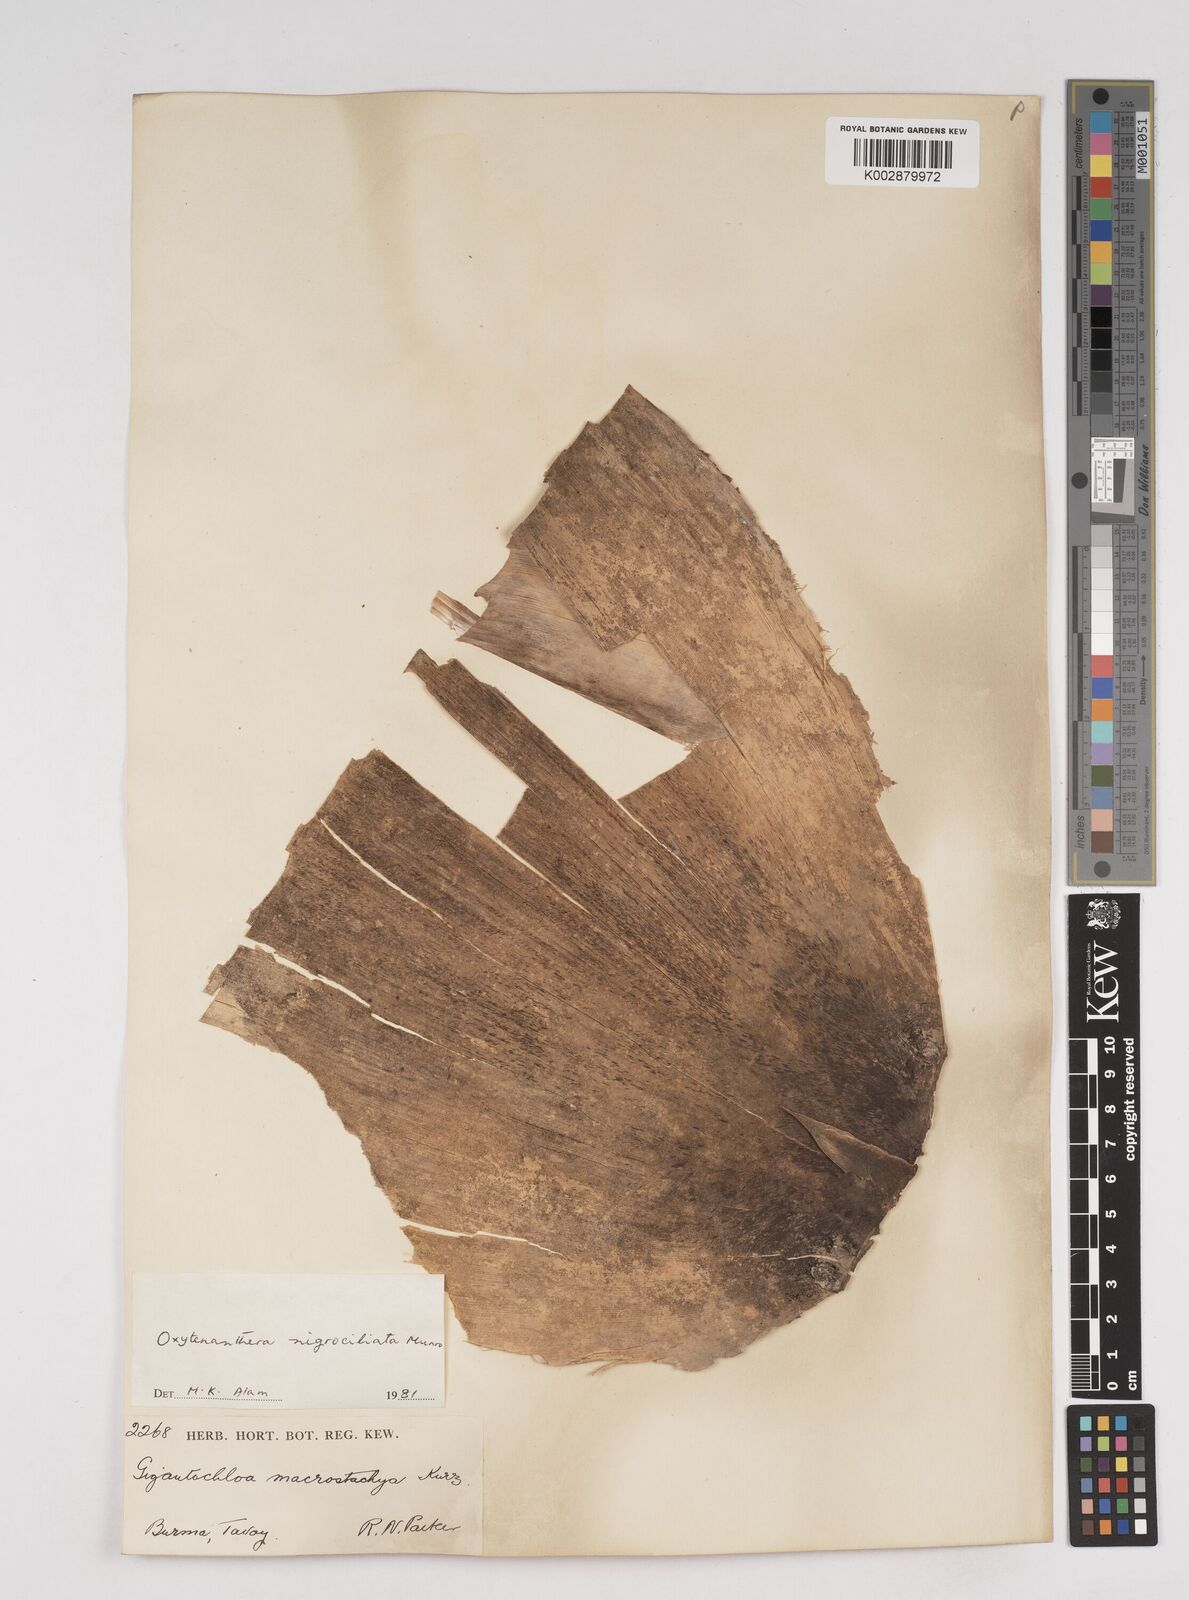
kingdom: Plantae
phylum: Tracheophyta
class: Liliopsida
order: Poales
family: Poaceae
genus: Gigantochloa
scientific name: Gigantochloa nigrociliata
